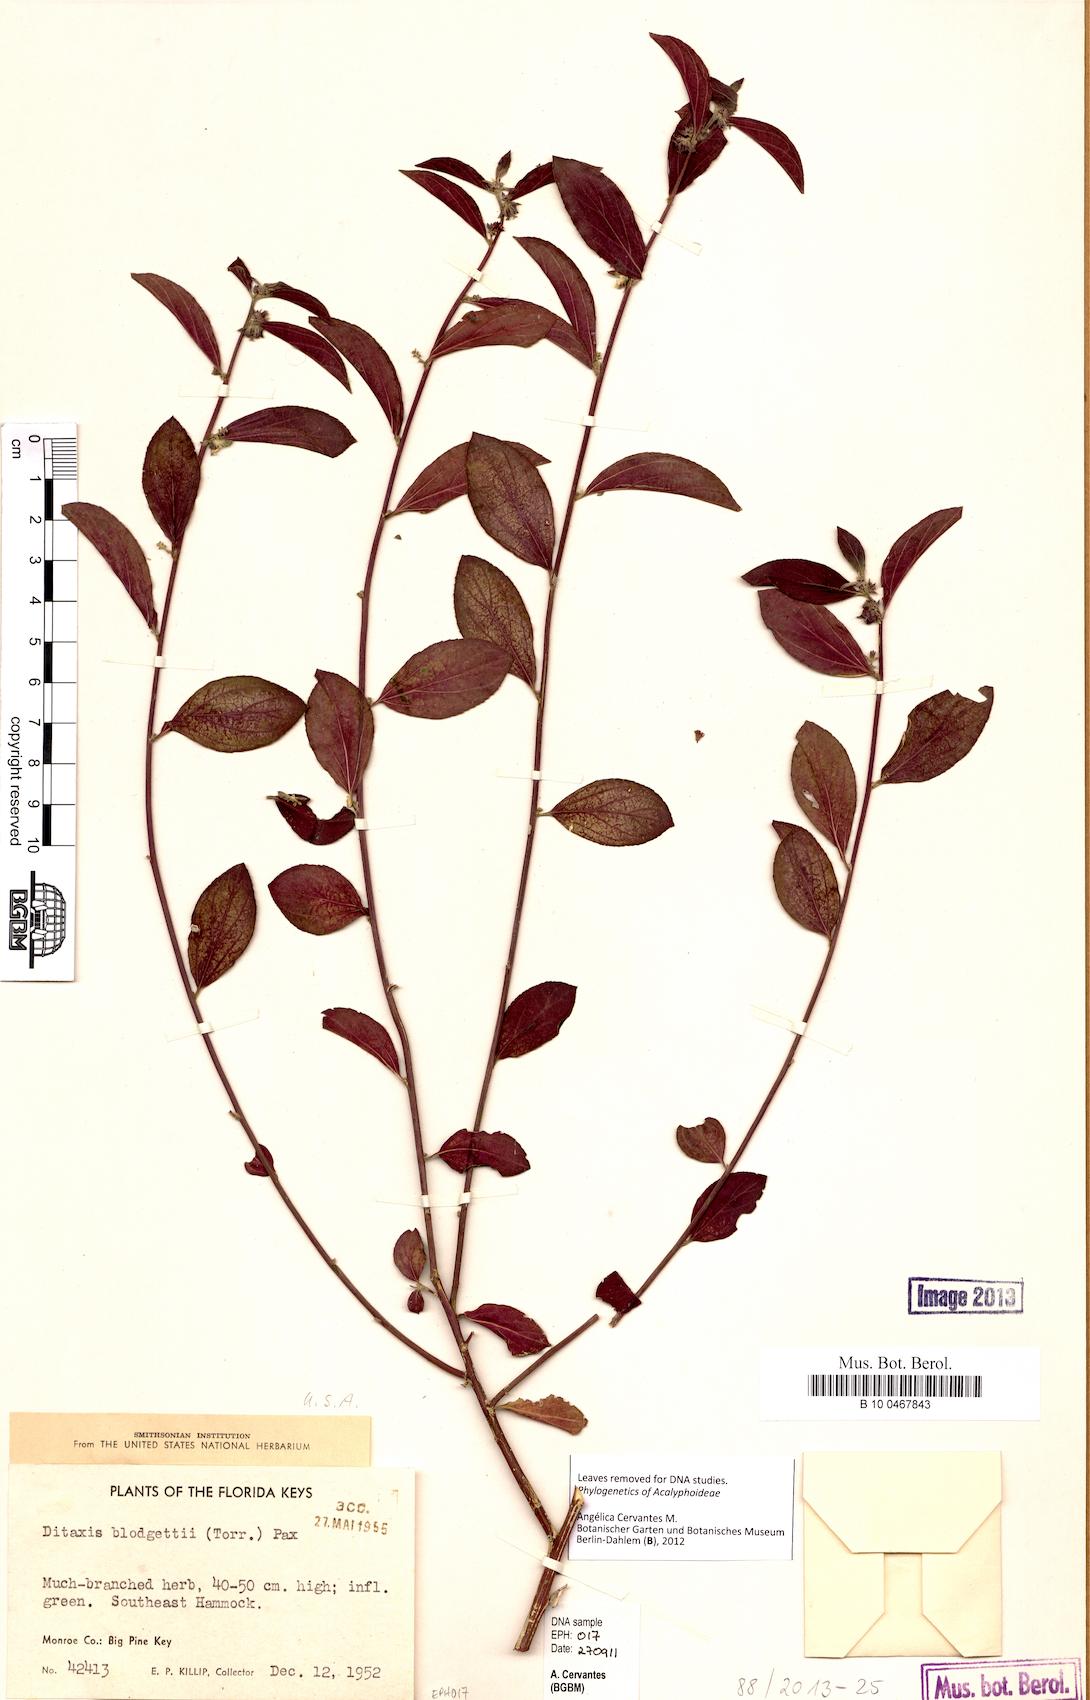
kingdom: Plantae
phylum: Tracheophyta
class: Magnoliopsida
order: Malpighiales
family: Euphorbiaceae
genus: Ditaxis
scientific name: Ditaxis argothamnoides
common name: Blodgett's silverbush
